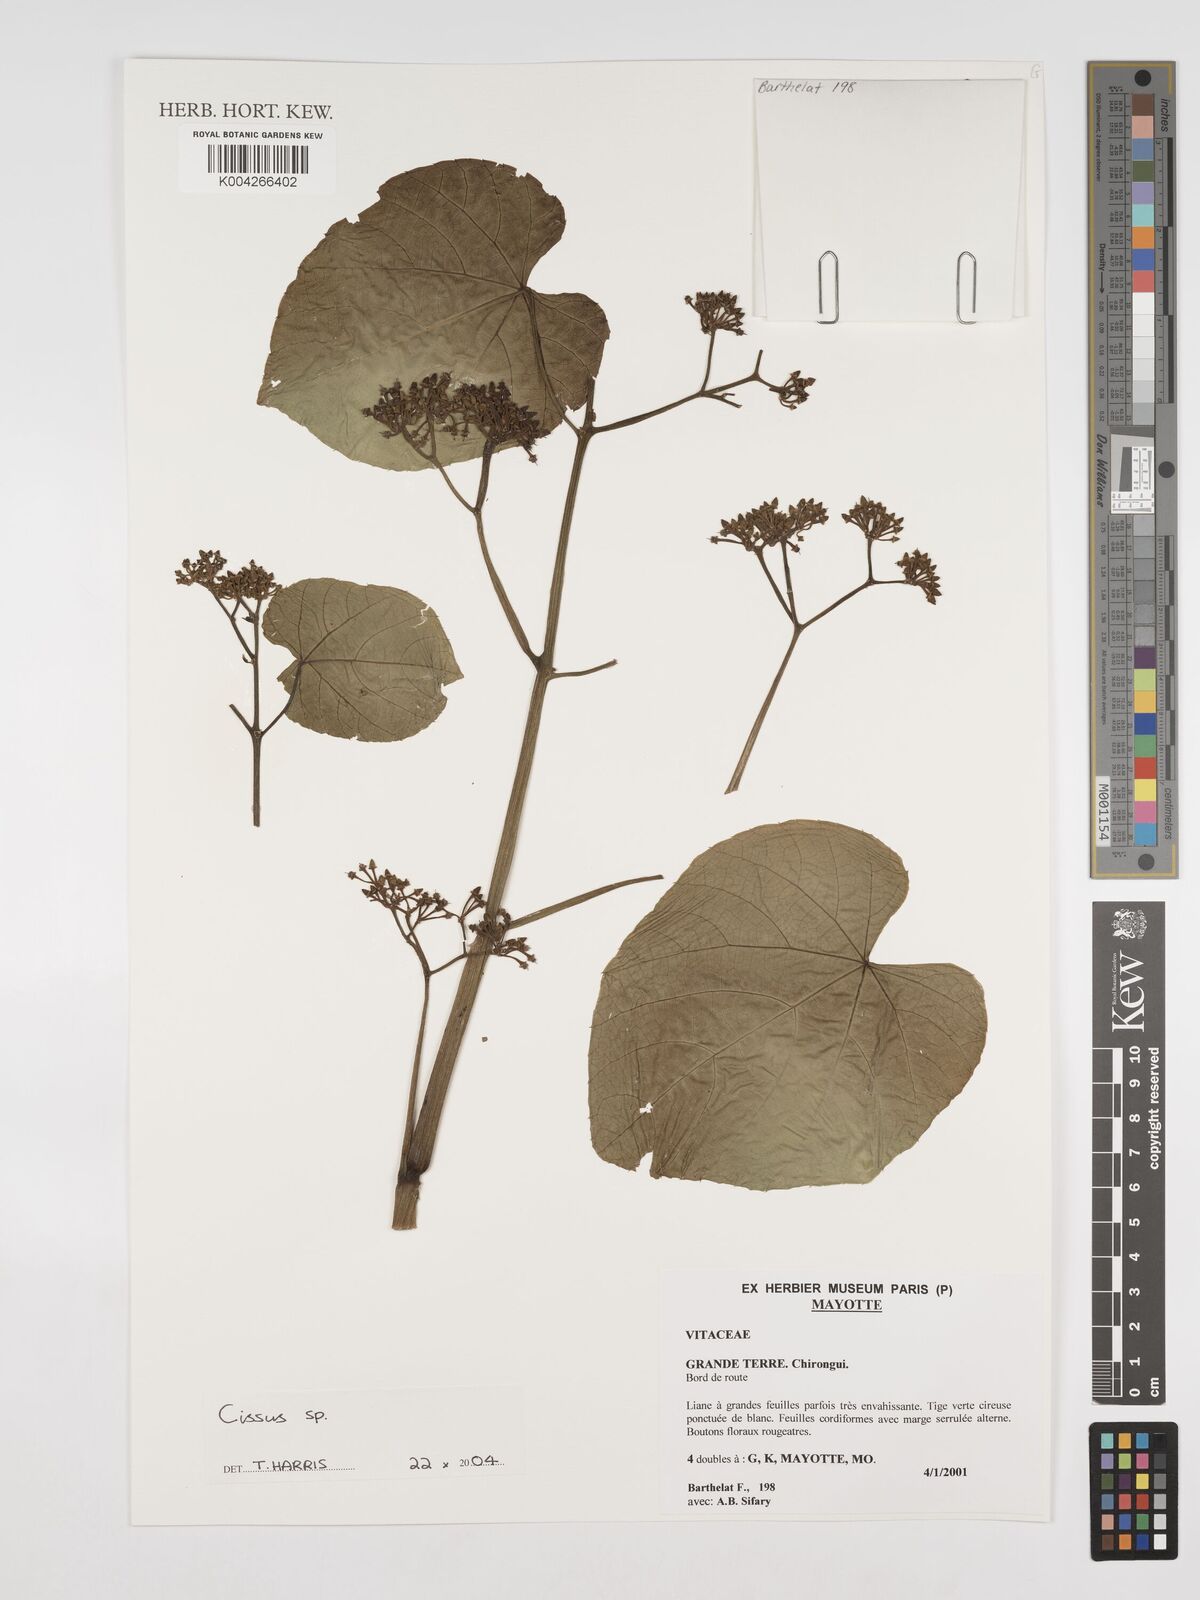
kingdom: Plantae
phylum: Tracheophyta
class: Magnoliopsida
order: Vitales
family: Vitaceae
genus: Cissus
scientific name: Cissus
